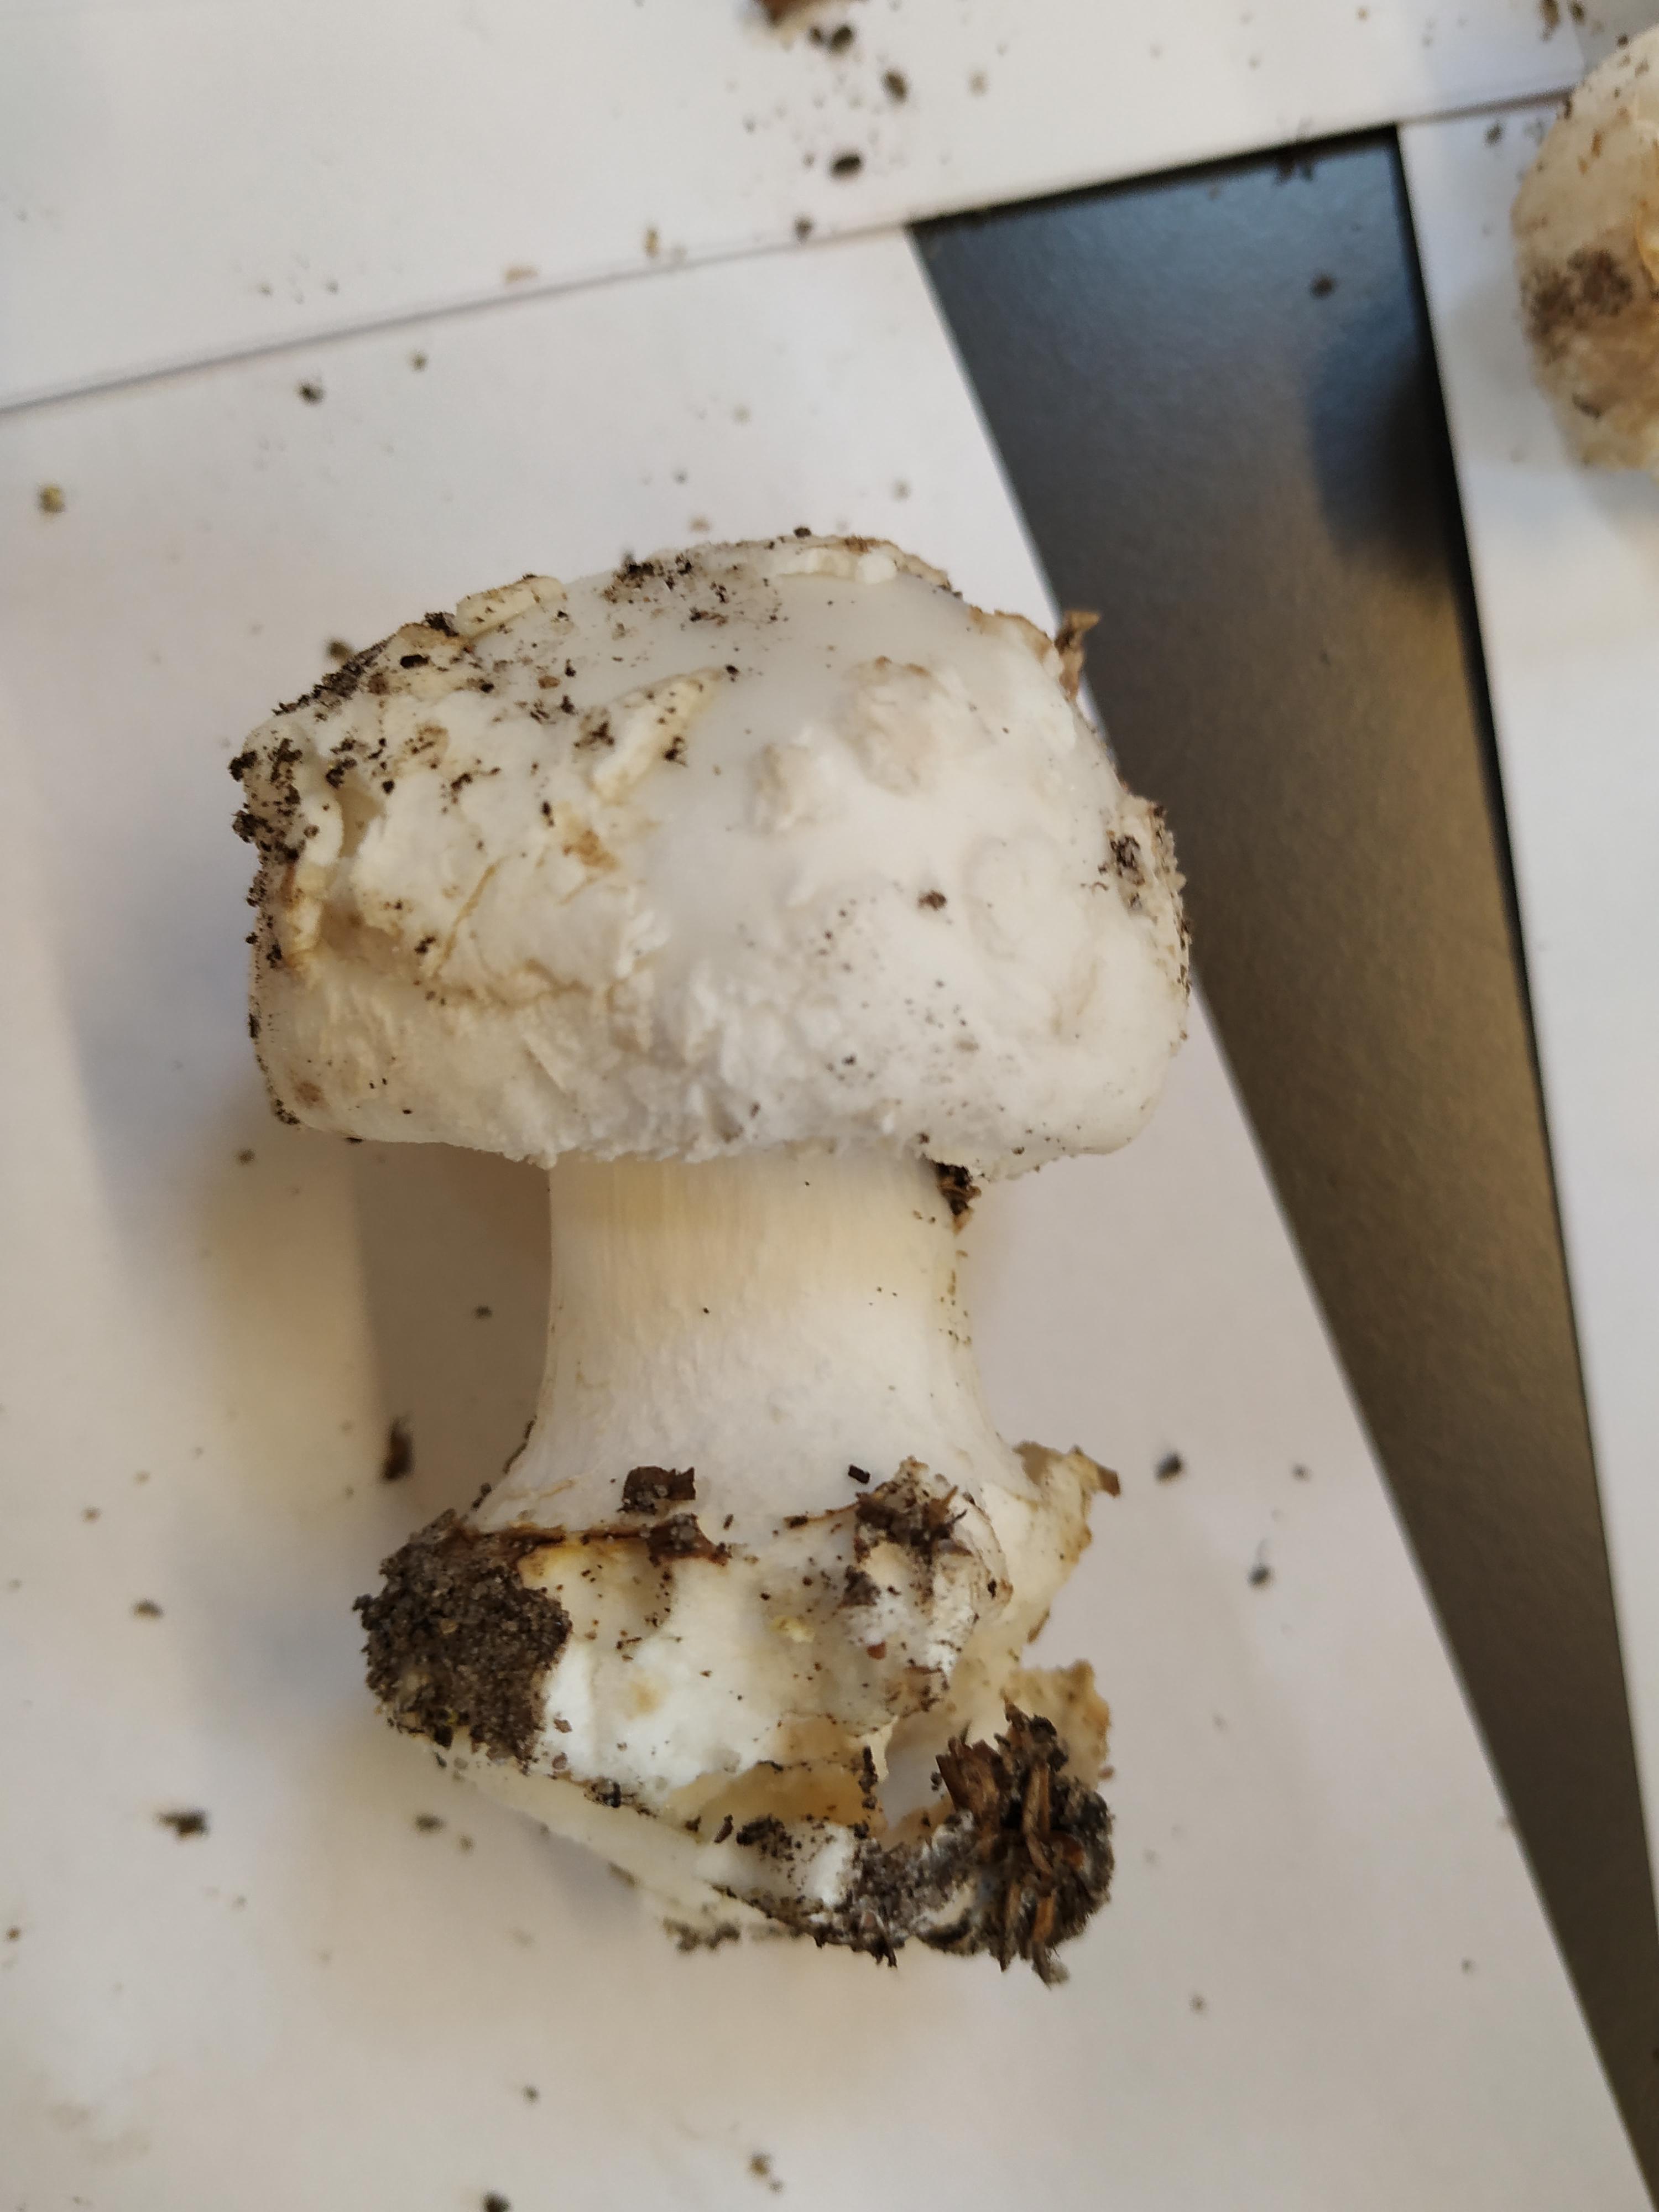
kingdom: Fungi
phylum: Basidiomycota
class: Agaricomycetes
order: Agaricales
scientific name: Agaricales
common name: champignonordenen
